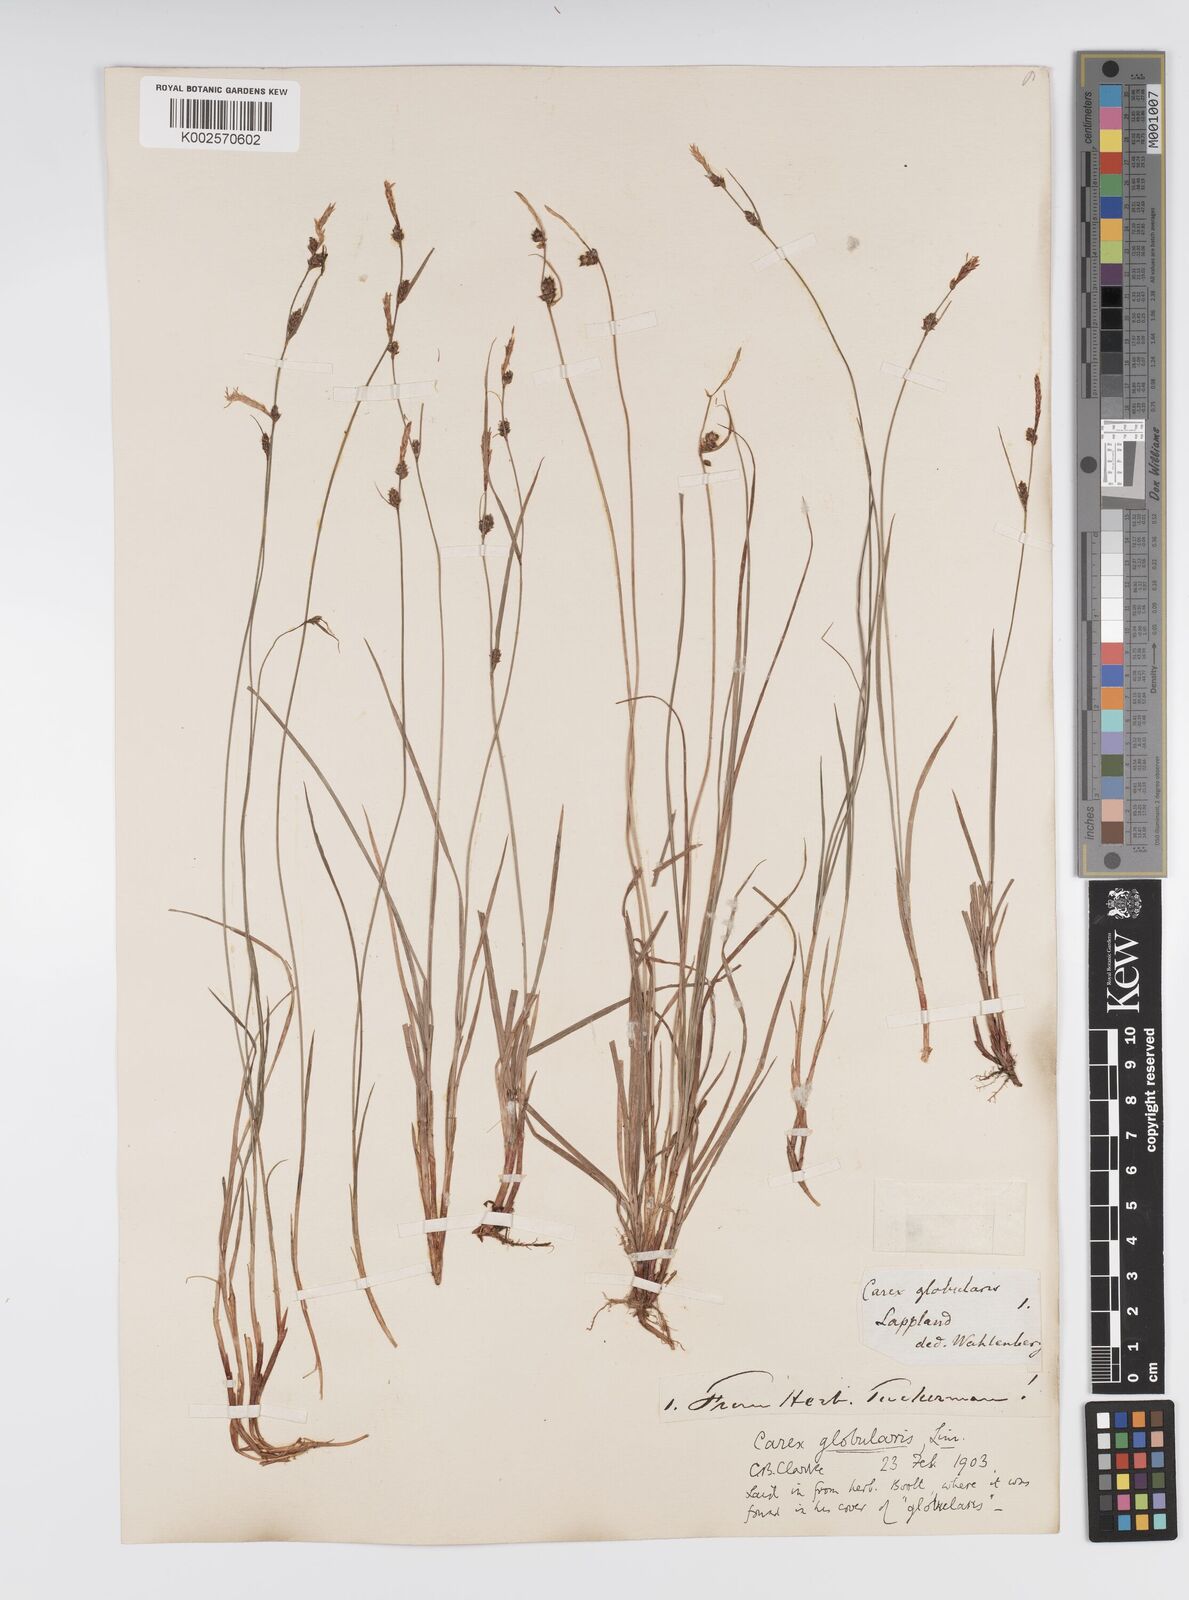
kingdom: Plantae
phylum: Tracheophyta
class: Liliopsida
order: Poales
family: Cyperaceae
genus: Carex
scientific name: Carex globularis
